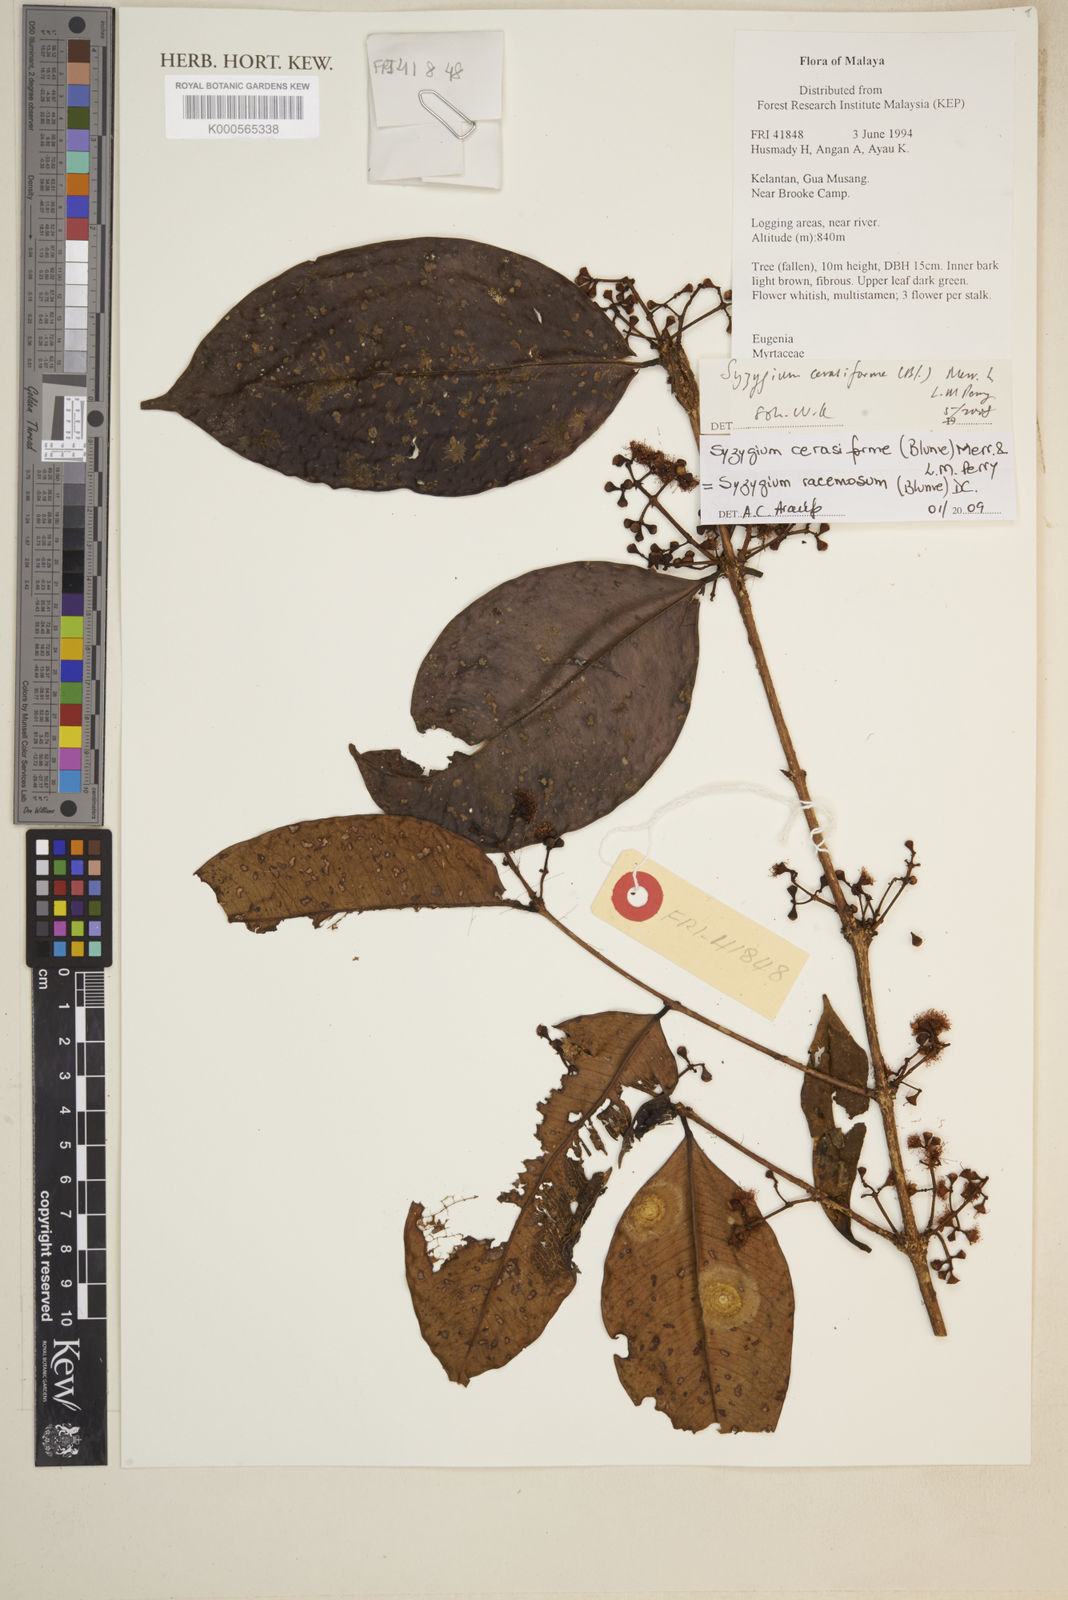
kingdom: Plantae
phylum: Tracheophyta
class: Magnoliopsida
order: Myrtales
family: Myrtaceae
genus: Syzygium
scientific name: Syzygium racemosum
